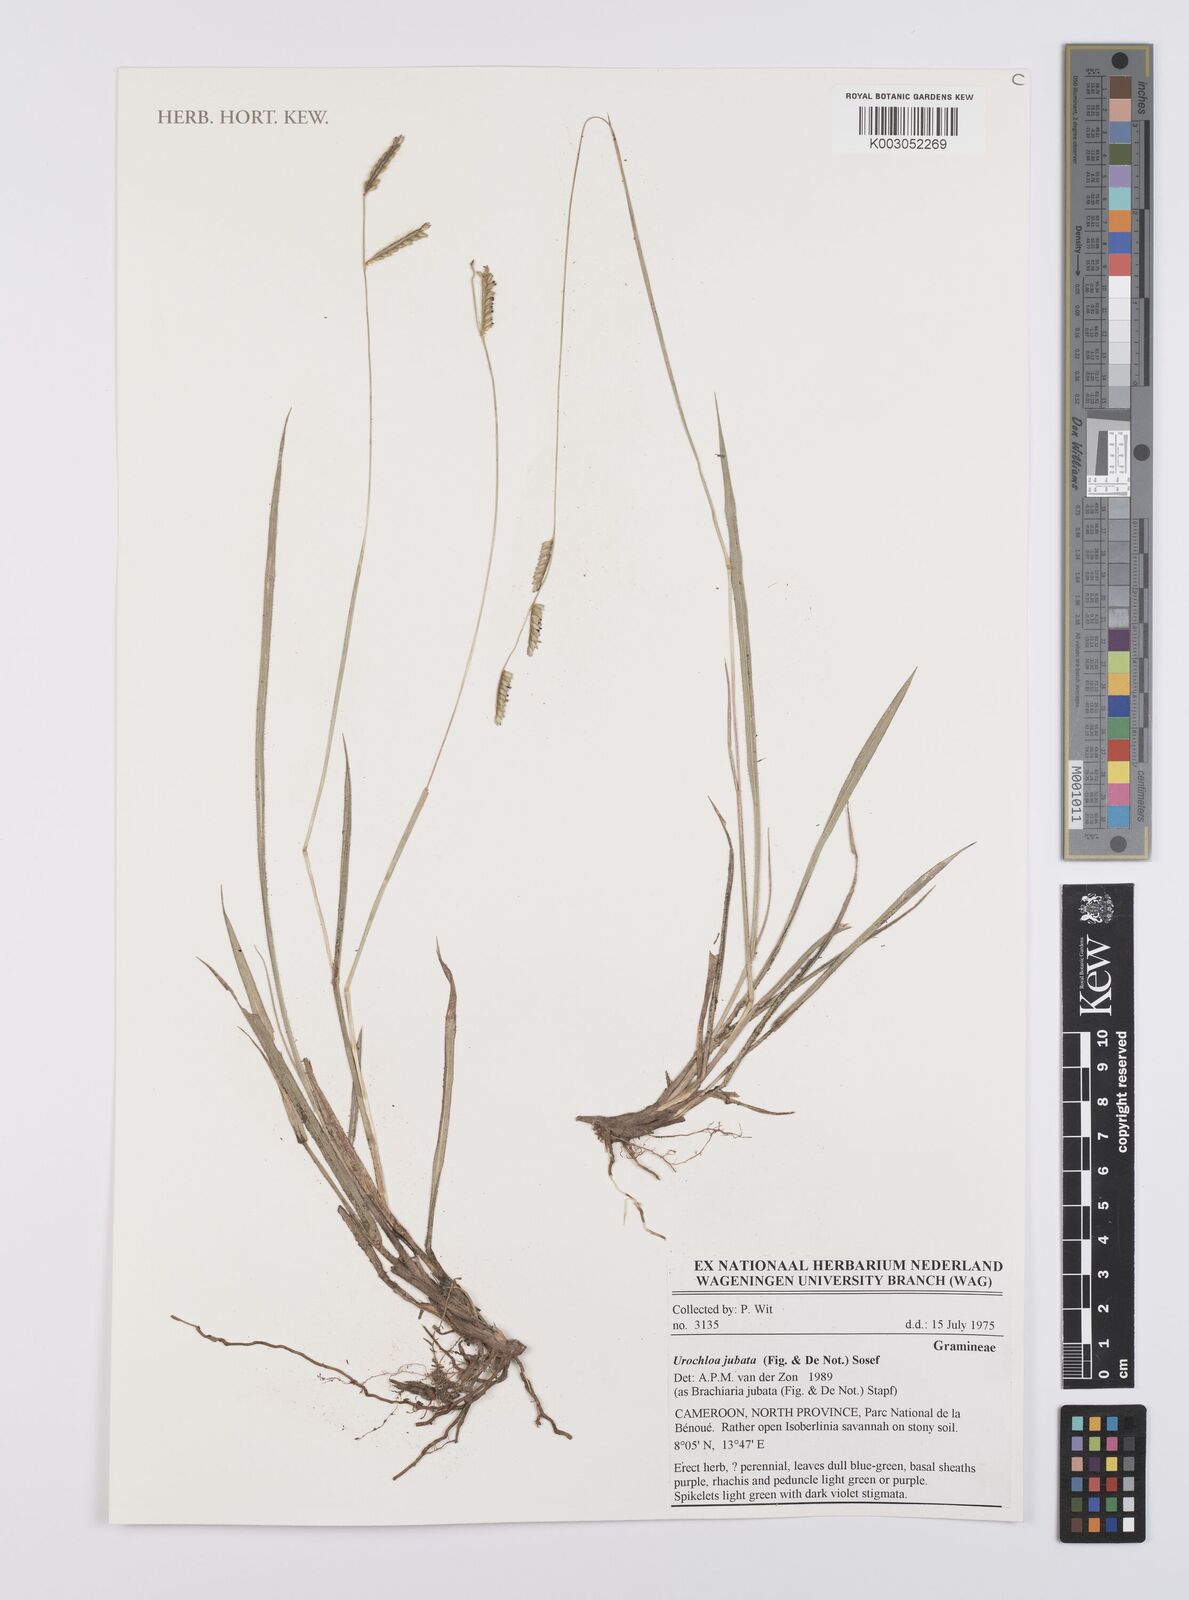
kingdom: Plantae
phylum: Tracheophyta
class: Liliopsida
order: Poales
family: Poaceae
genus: Urochloa
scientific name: Urochloa jubata
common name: Buffalograss
